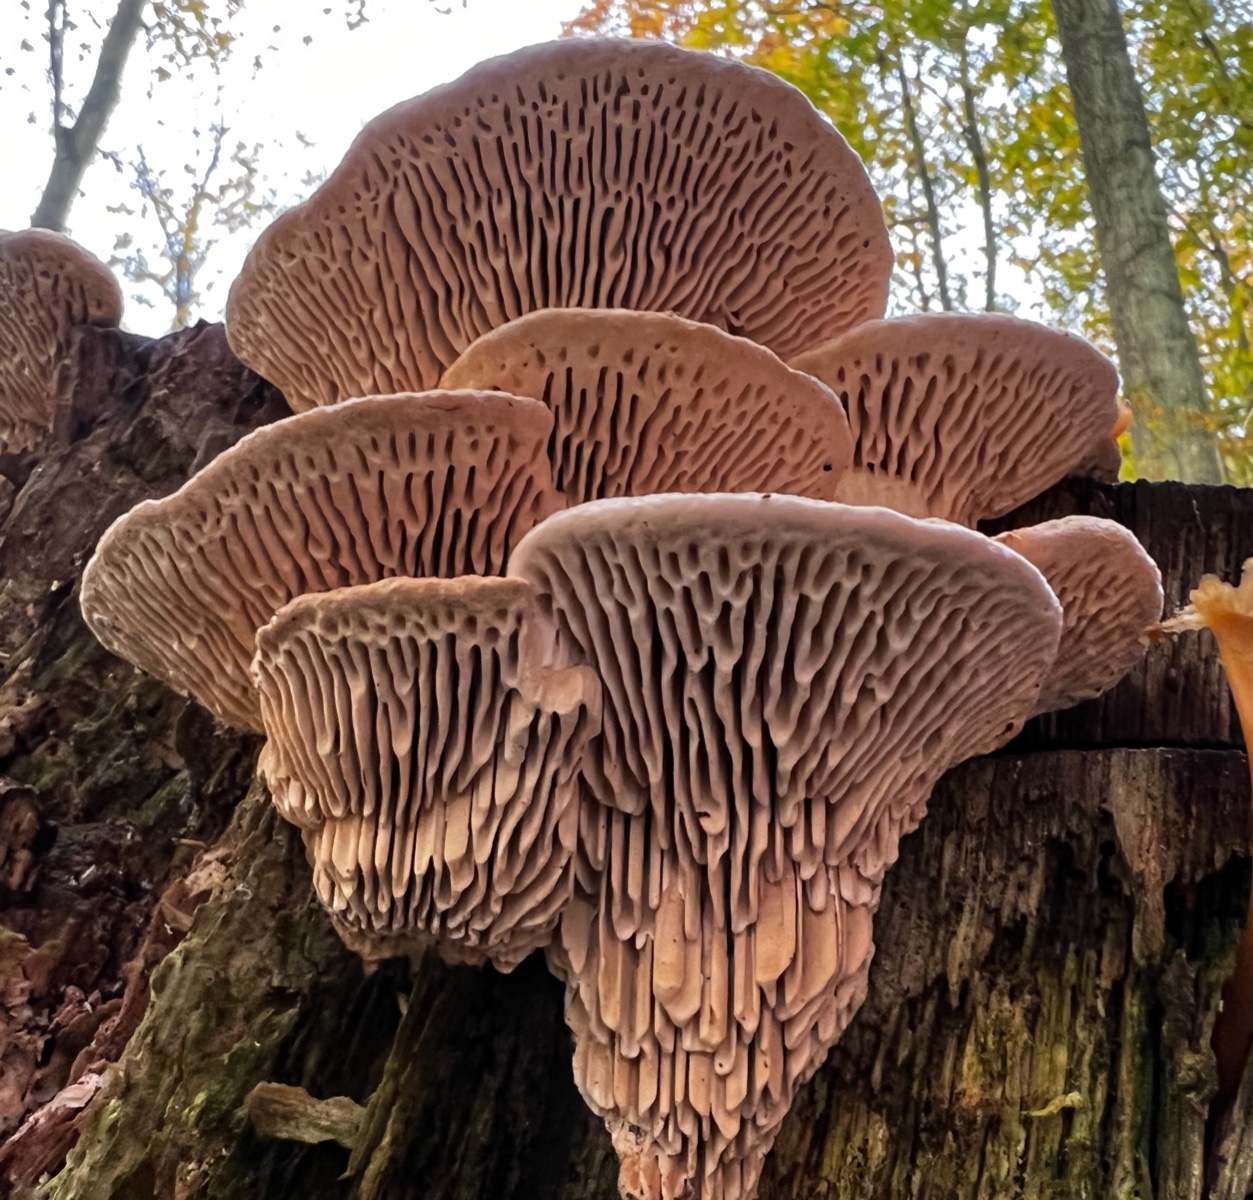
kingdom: Fungi
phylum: Basidiomycota
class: Agaricomycetes
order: Polyporales
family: Fomitopsidaceae
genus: Daedalea
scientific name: Daedalea quercina
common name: ege-labyrintsvamp
